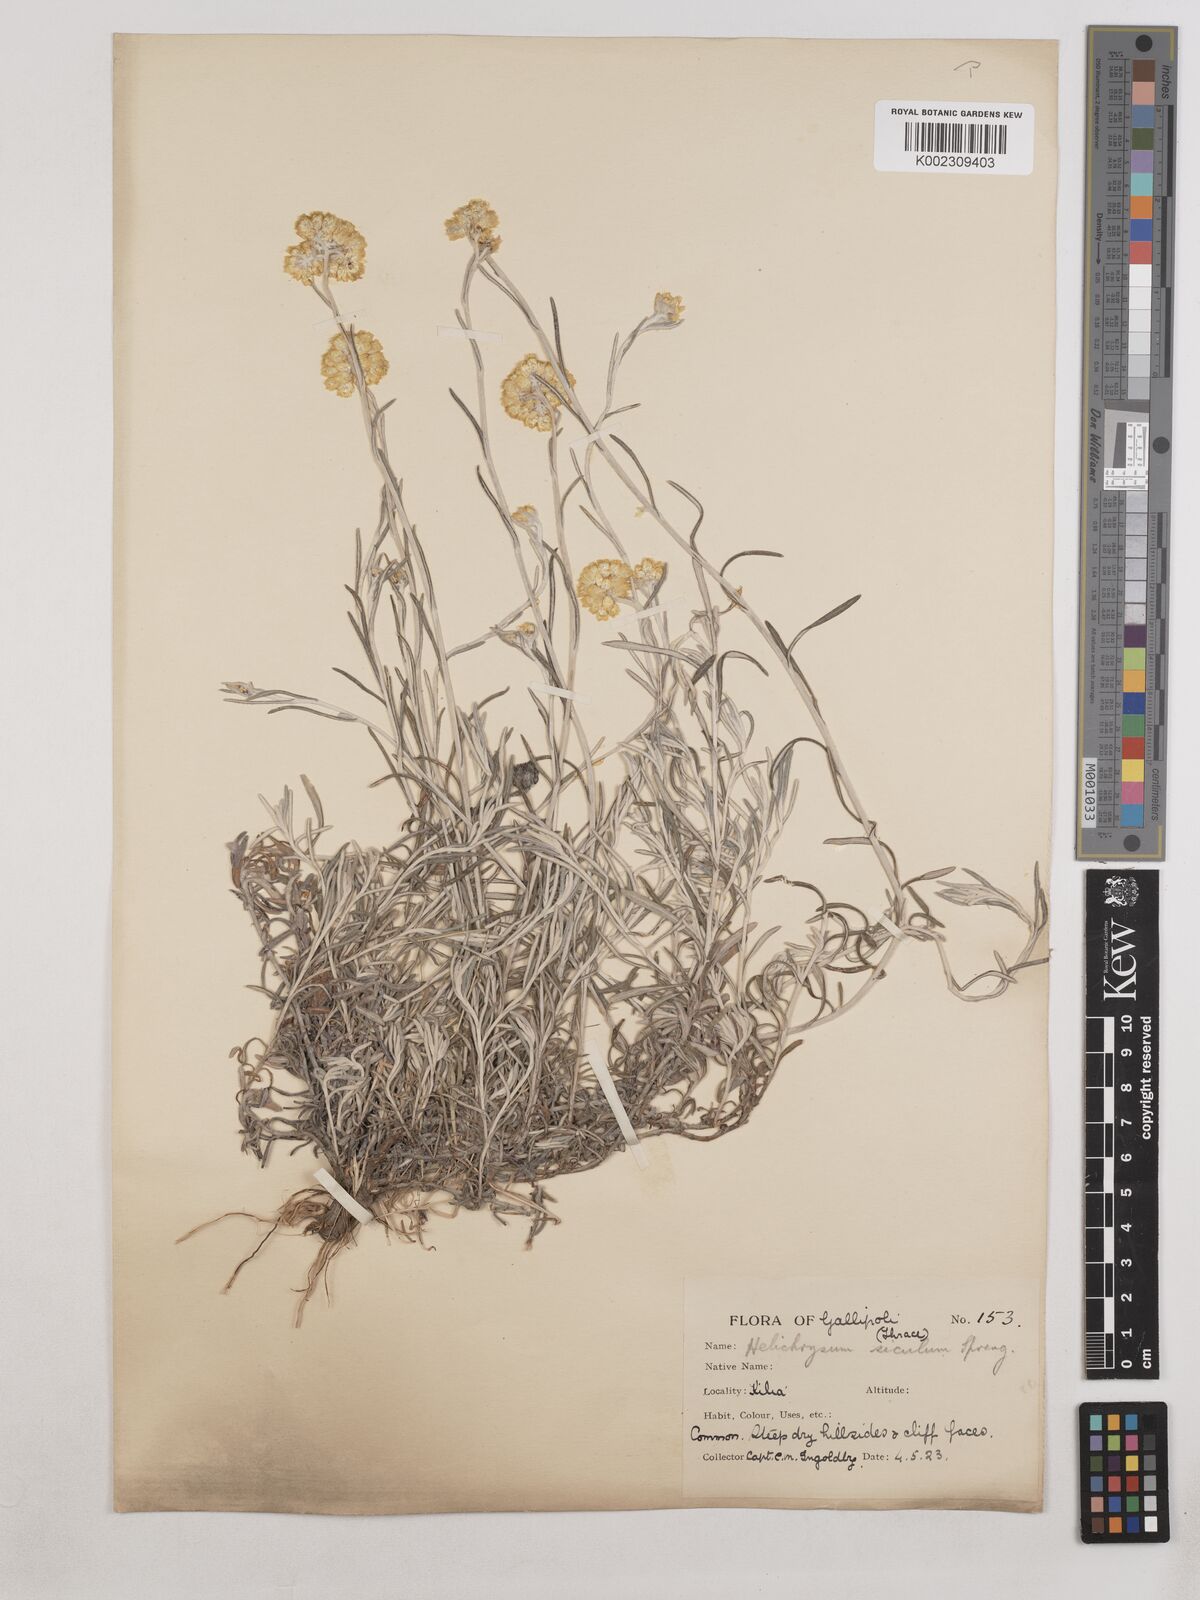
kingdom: Plantae
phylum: Tracheophyta
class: Magnoliopsida
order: Asterales
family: Asteraceae
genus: Helichrysum
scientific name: Helichrysum stoechas
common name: Goldilocks
